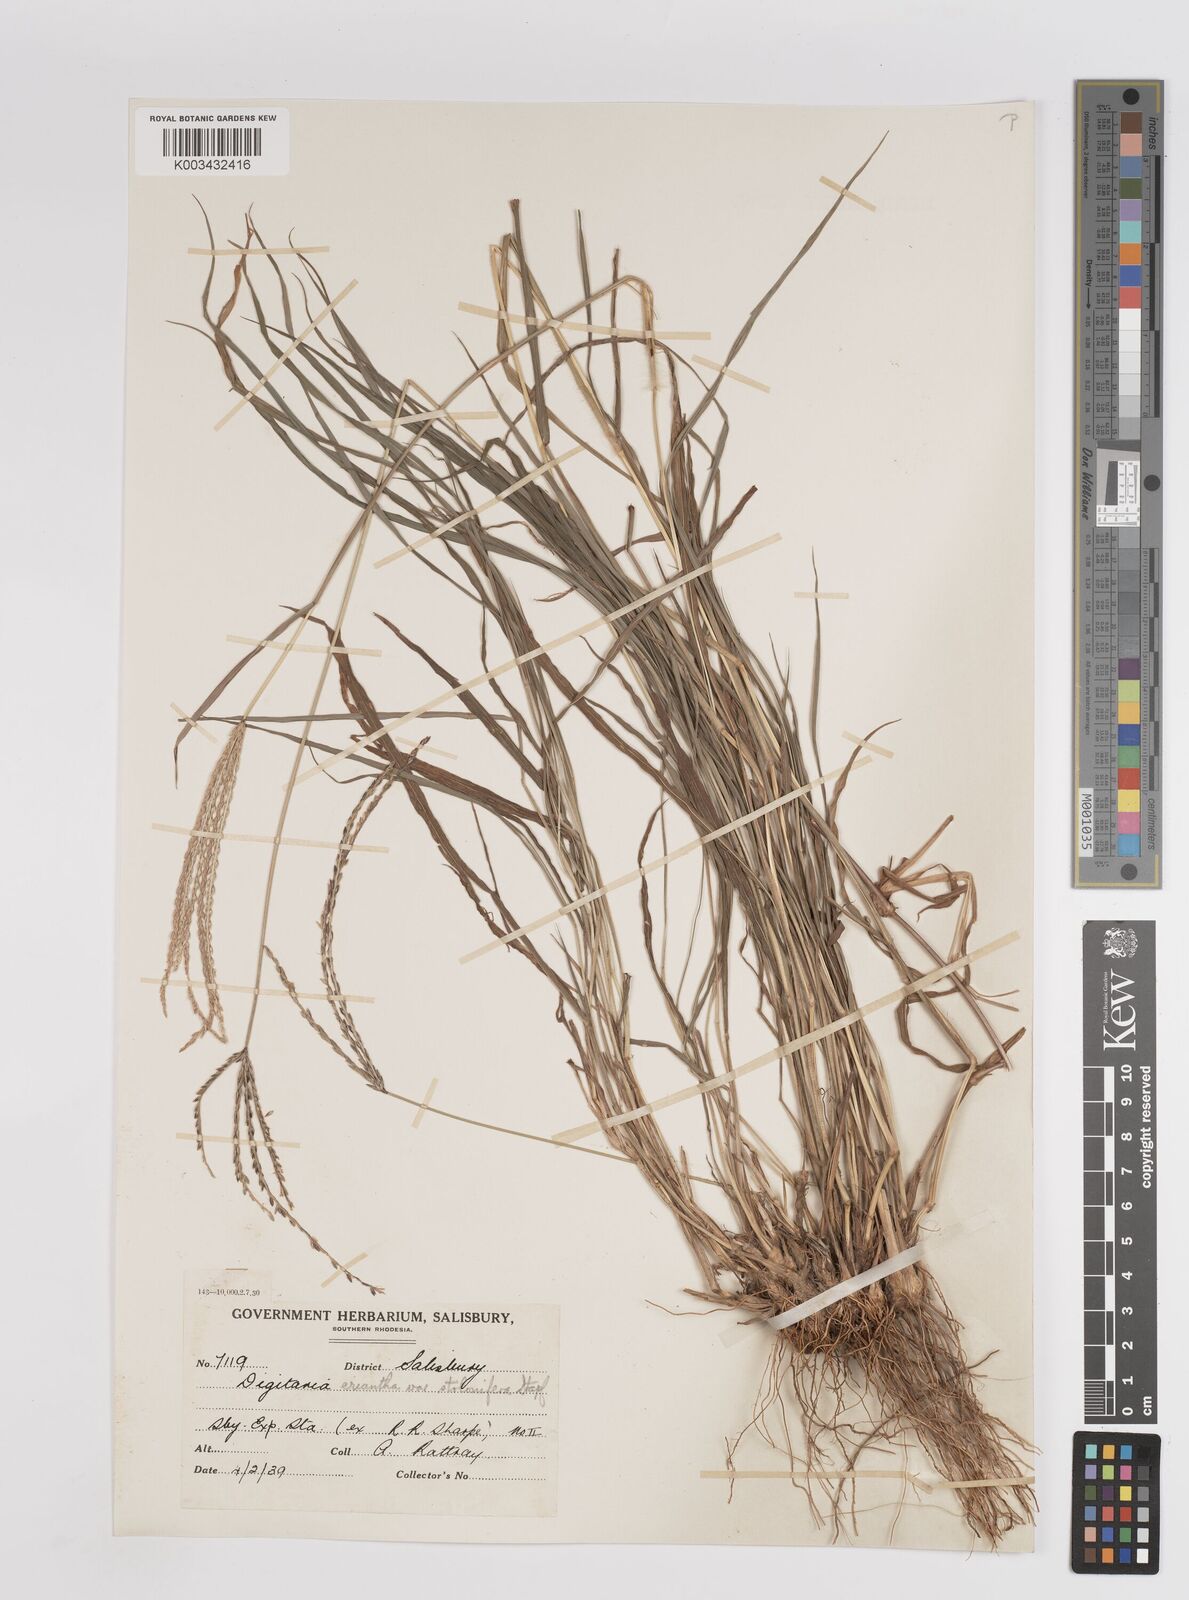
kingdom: Plantae
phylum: Tracheophyta
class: Liliopsida
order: Poales
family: Poaceae
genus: Digitaria
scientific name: Digitaria eriantha
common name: Digitgrass
